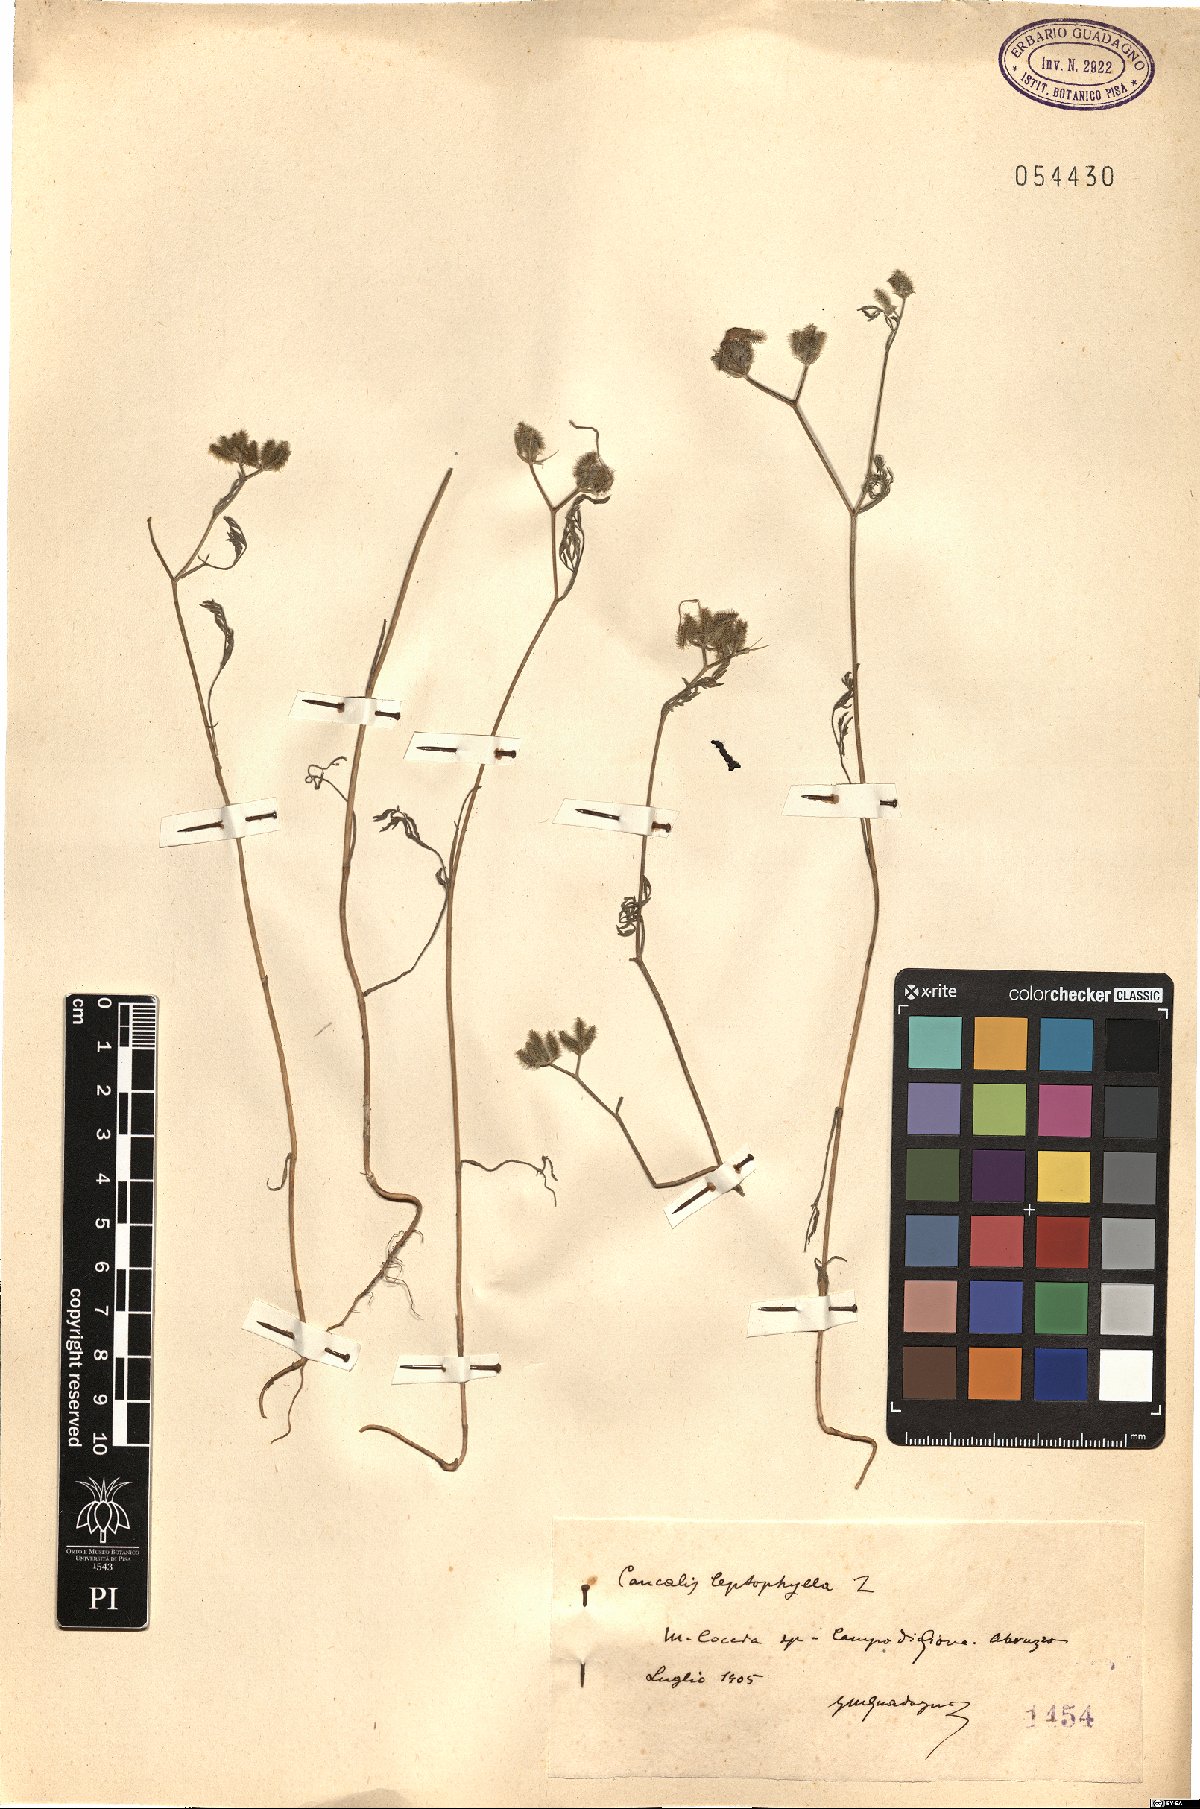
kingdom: Plantae
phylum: Tracheophyta
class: Magnoliopsida
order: Apiales
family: Apiaceae
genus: Torilis
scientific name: Torilis leptophylla
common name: Bristlefruit hedgeparsley
